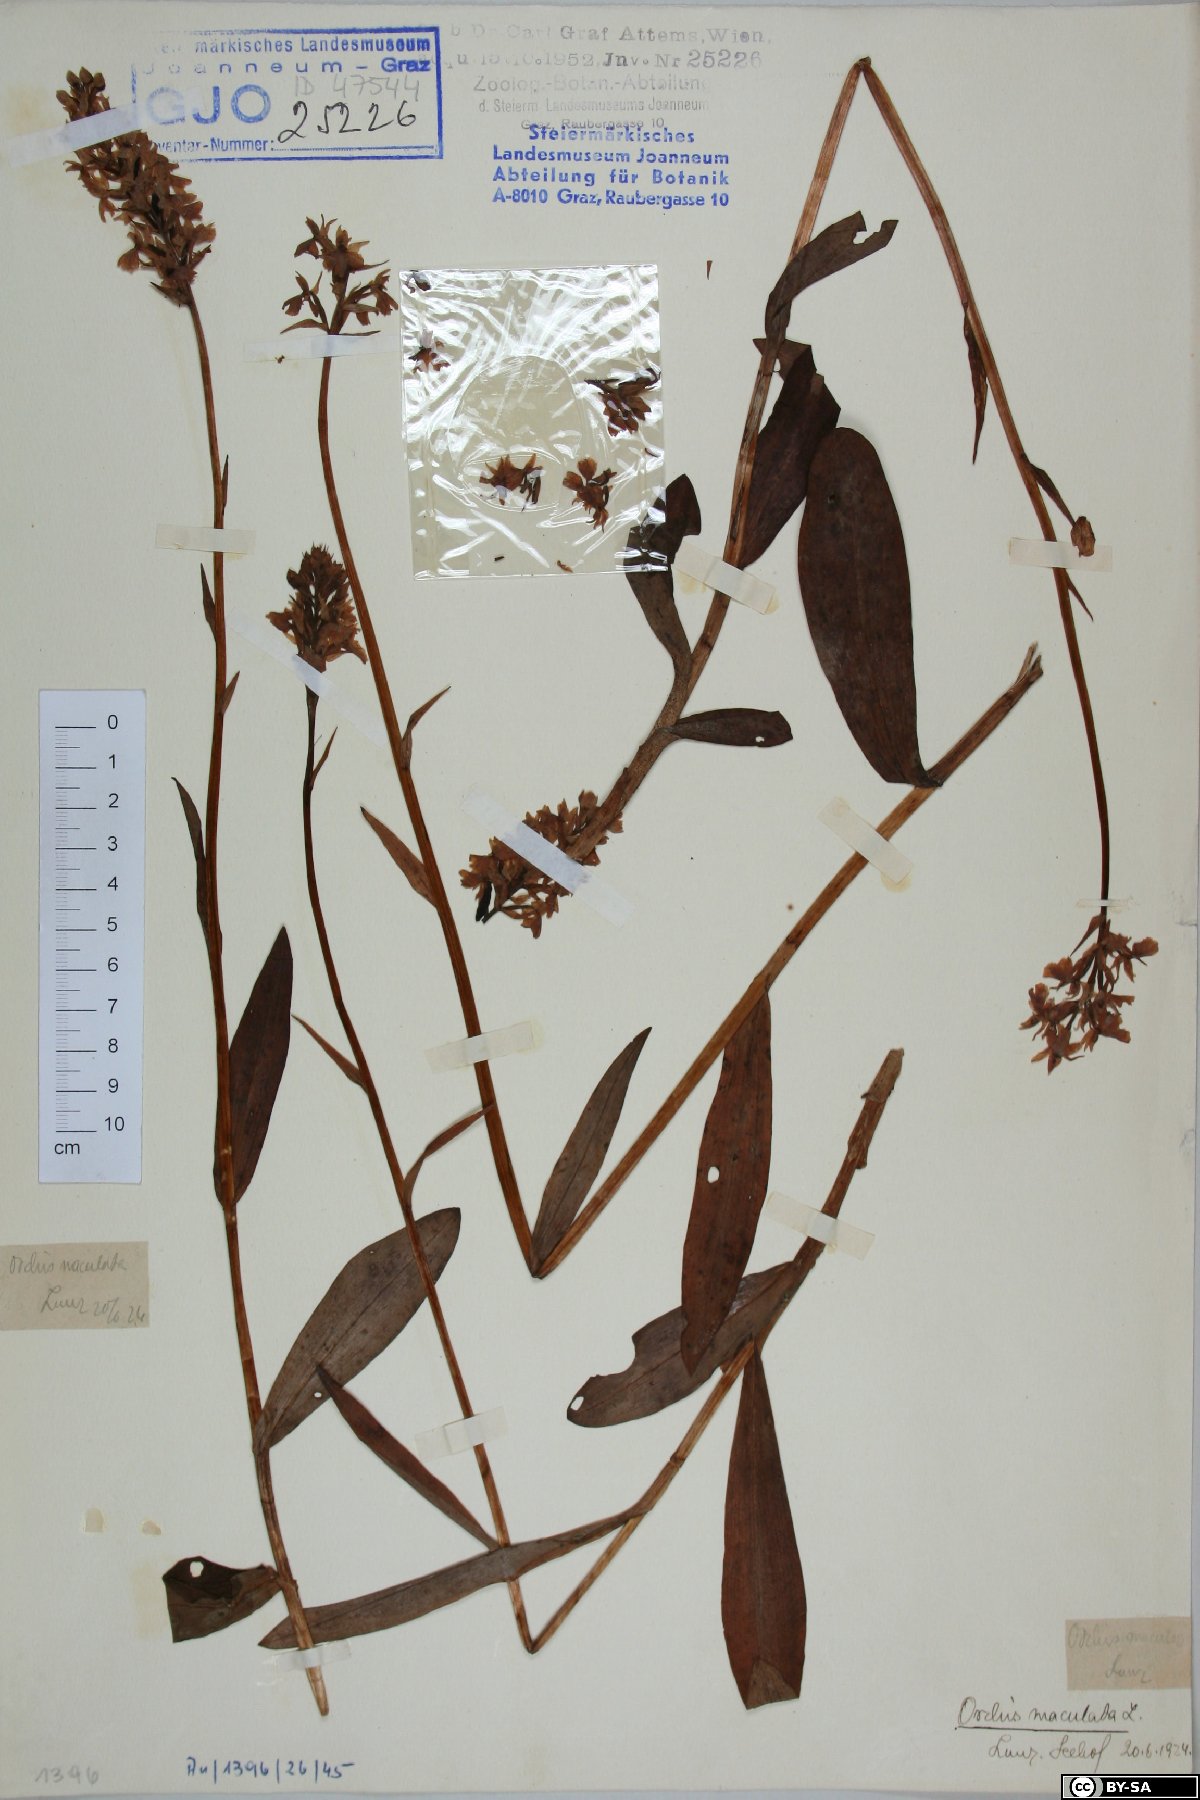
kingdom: Plantae
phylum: Tracheophyta
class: Liliopsida
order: Asparagales
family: Orchidaceae
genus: Dactylorhiza
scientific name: Dactylorhiza maculata
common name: Heath spotted-orchid
